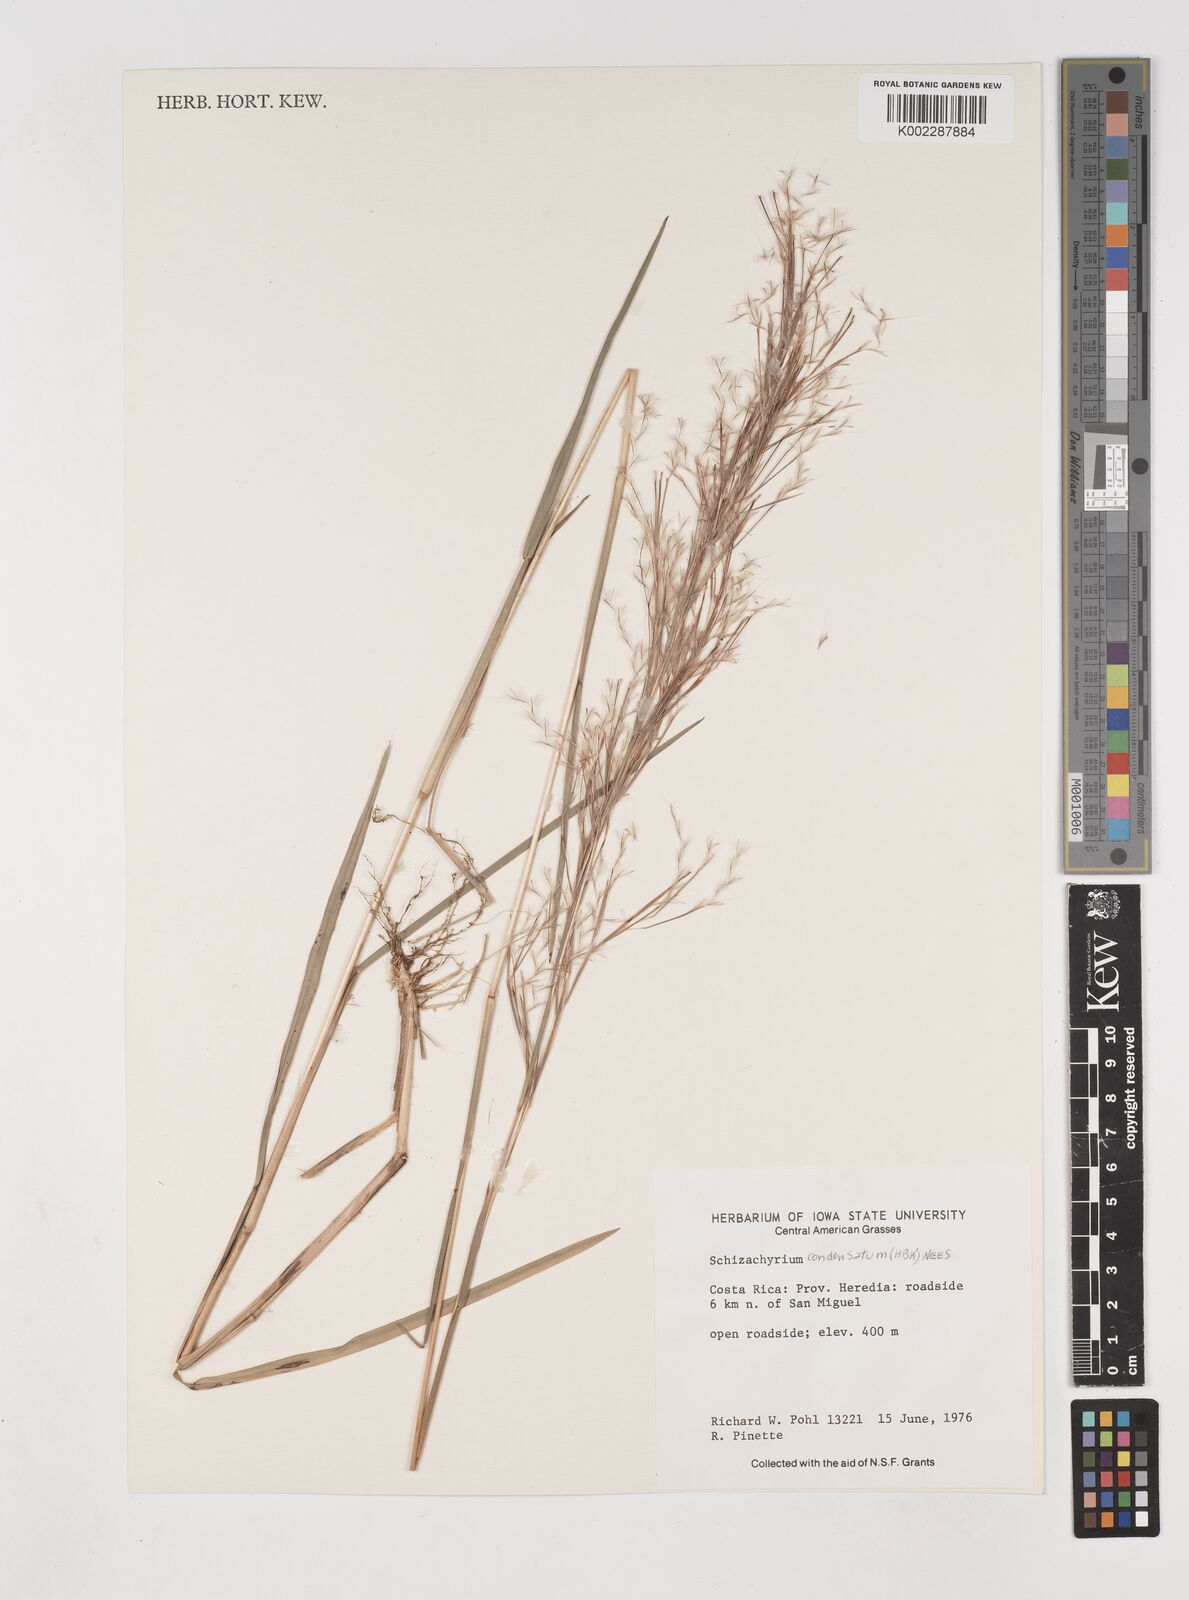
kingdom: Plantae
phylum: Tracheophyta
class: Liliopsida
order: Poales
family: Poaceae
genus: Schizachyrium
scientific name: Schizachyrium condensatum
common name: Bush beardgrass
